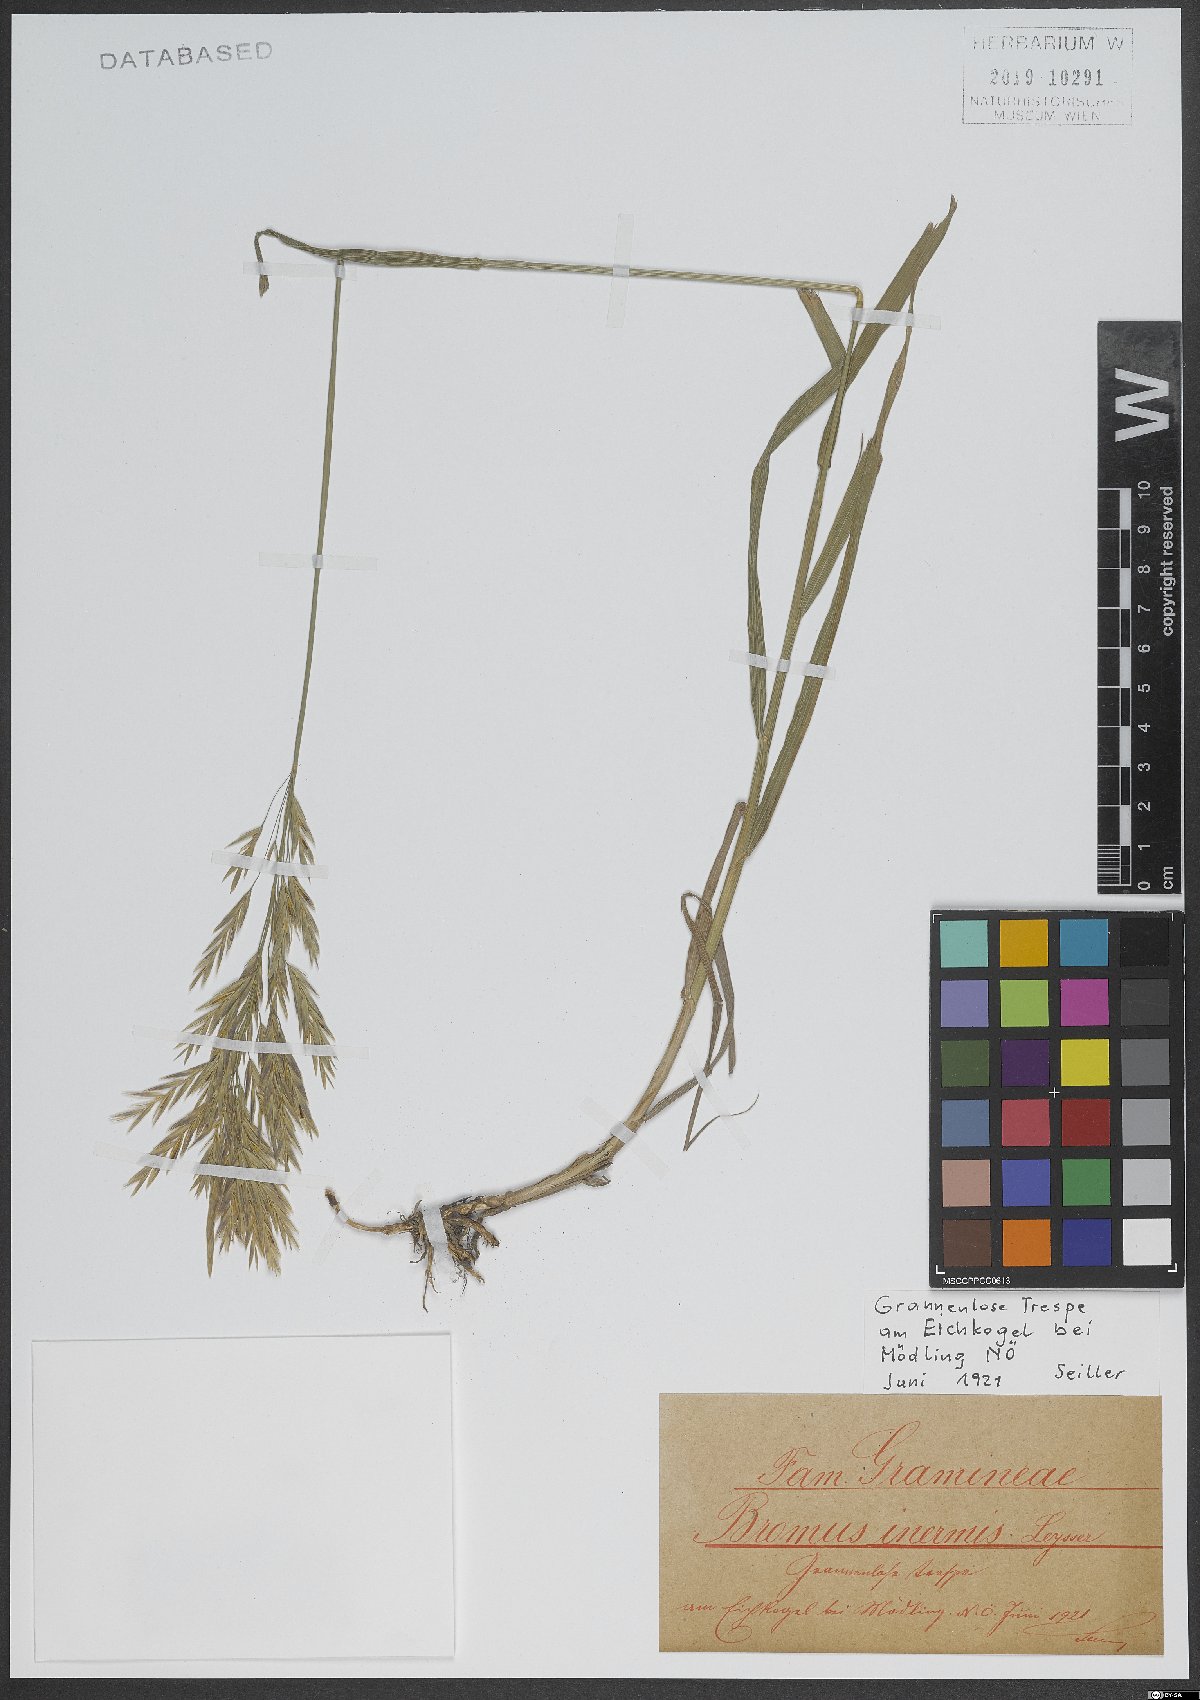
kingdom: Plantae
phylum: Tracheophyta
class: Liliopsida
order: Poales
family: Poaceae
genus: Bromus
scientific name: Bromus inermis
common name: Smooth brome
